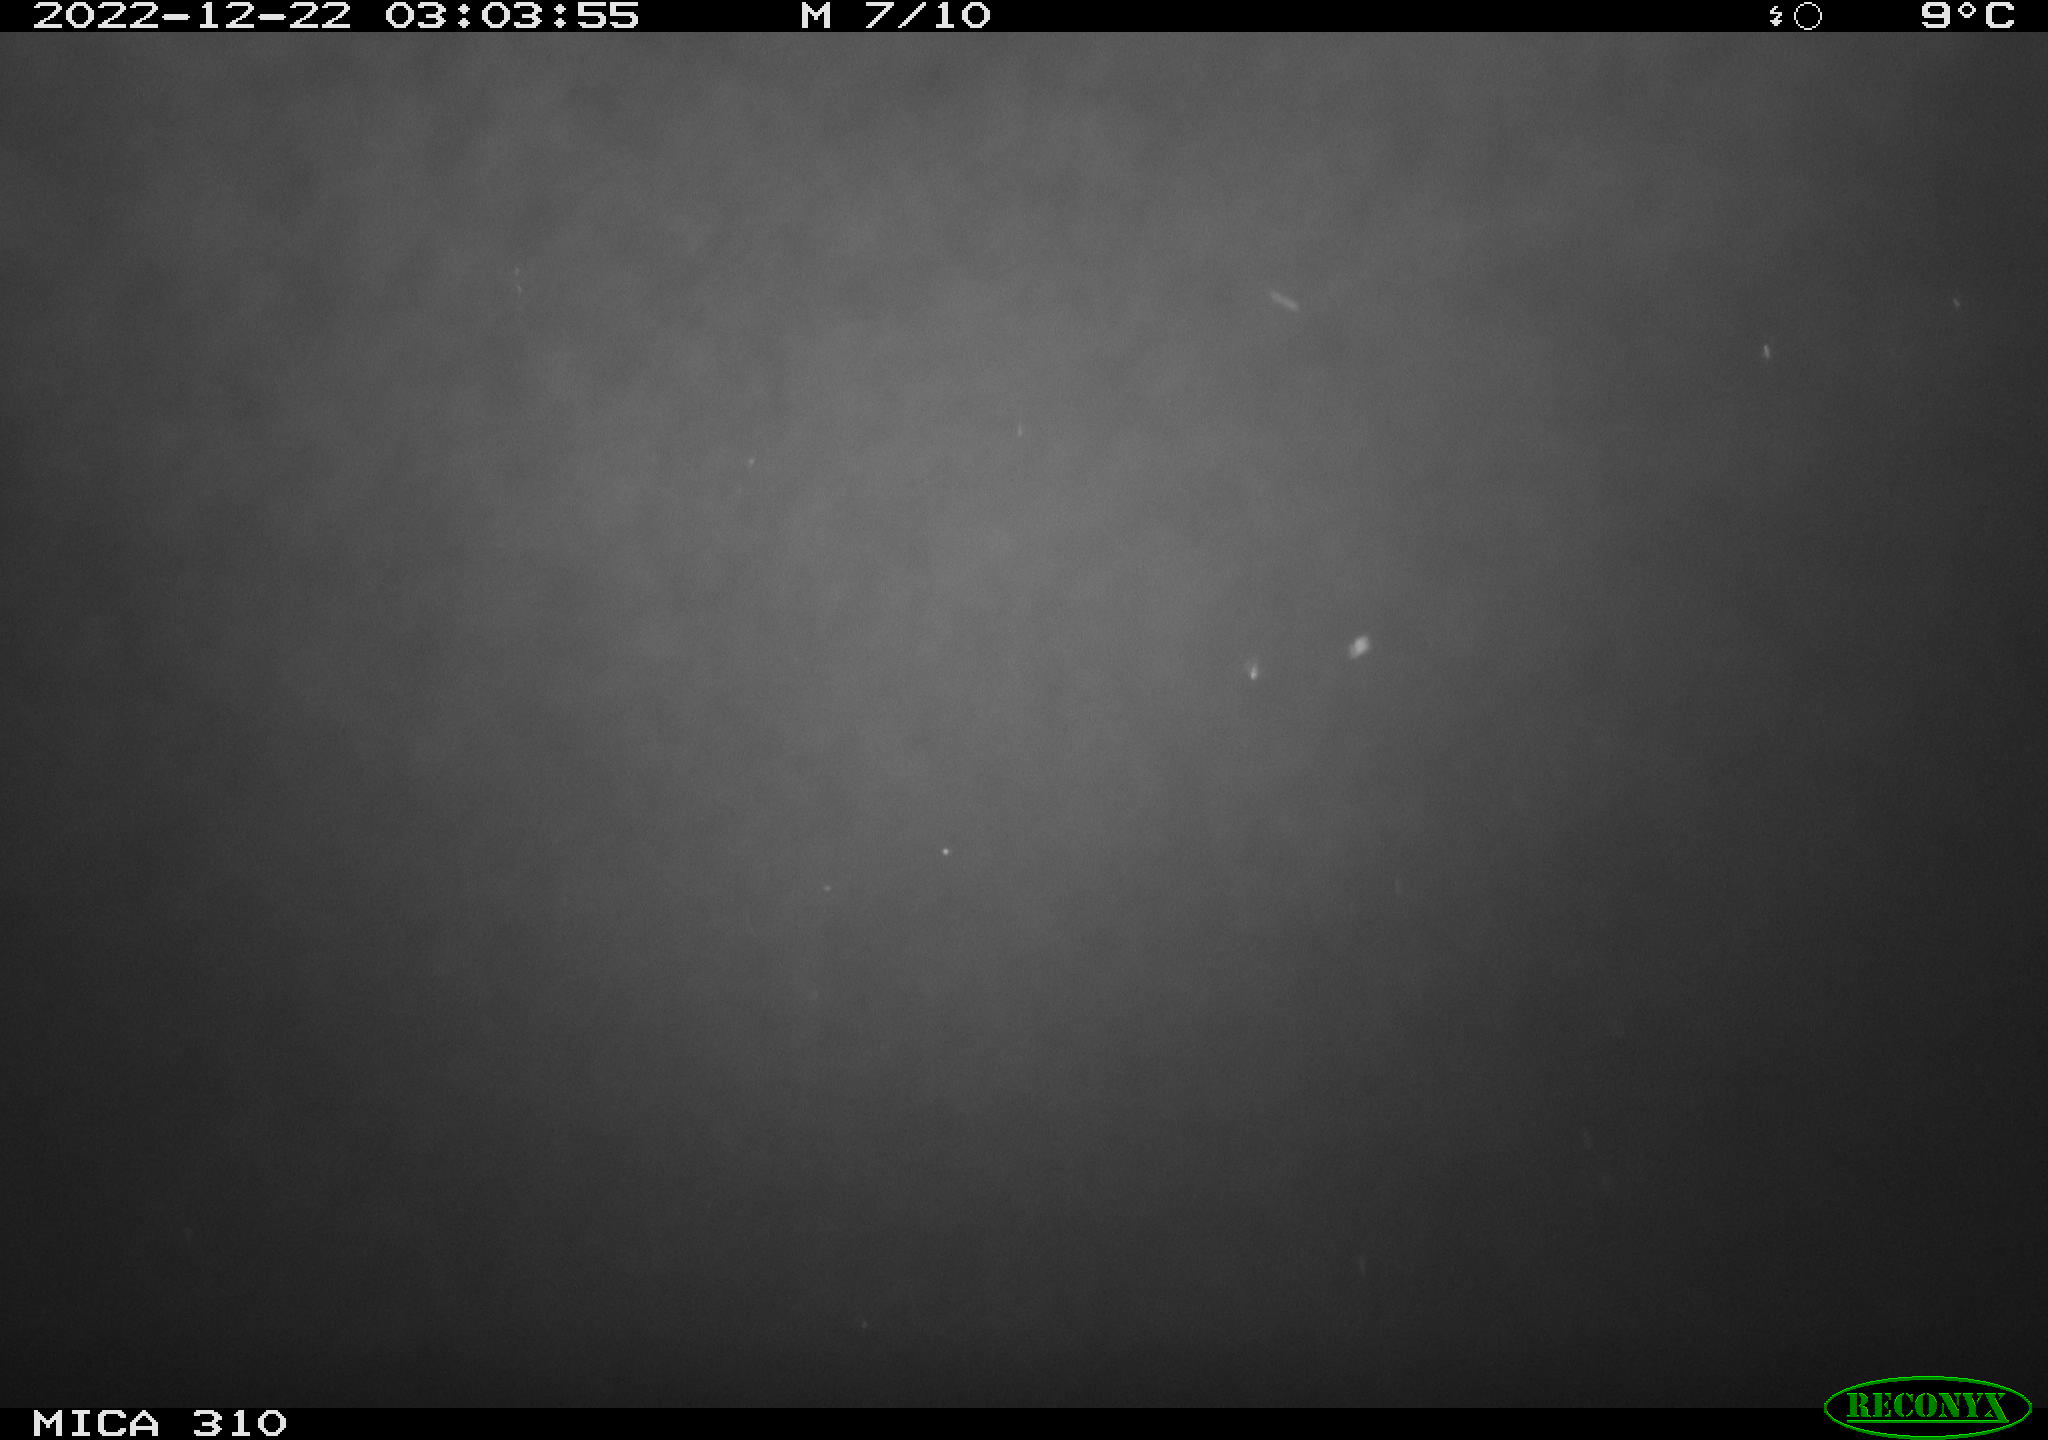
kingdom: Animalia
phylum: Chordata
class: Mammalia
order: Rodentia
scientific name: Rodentia
